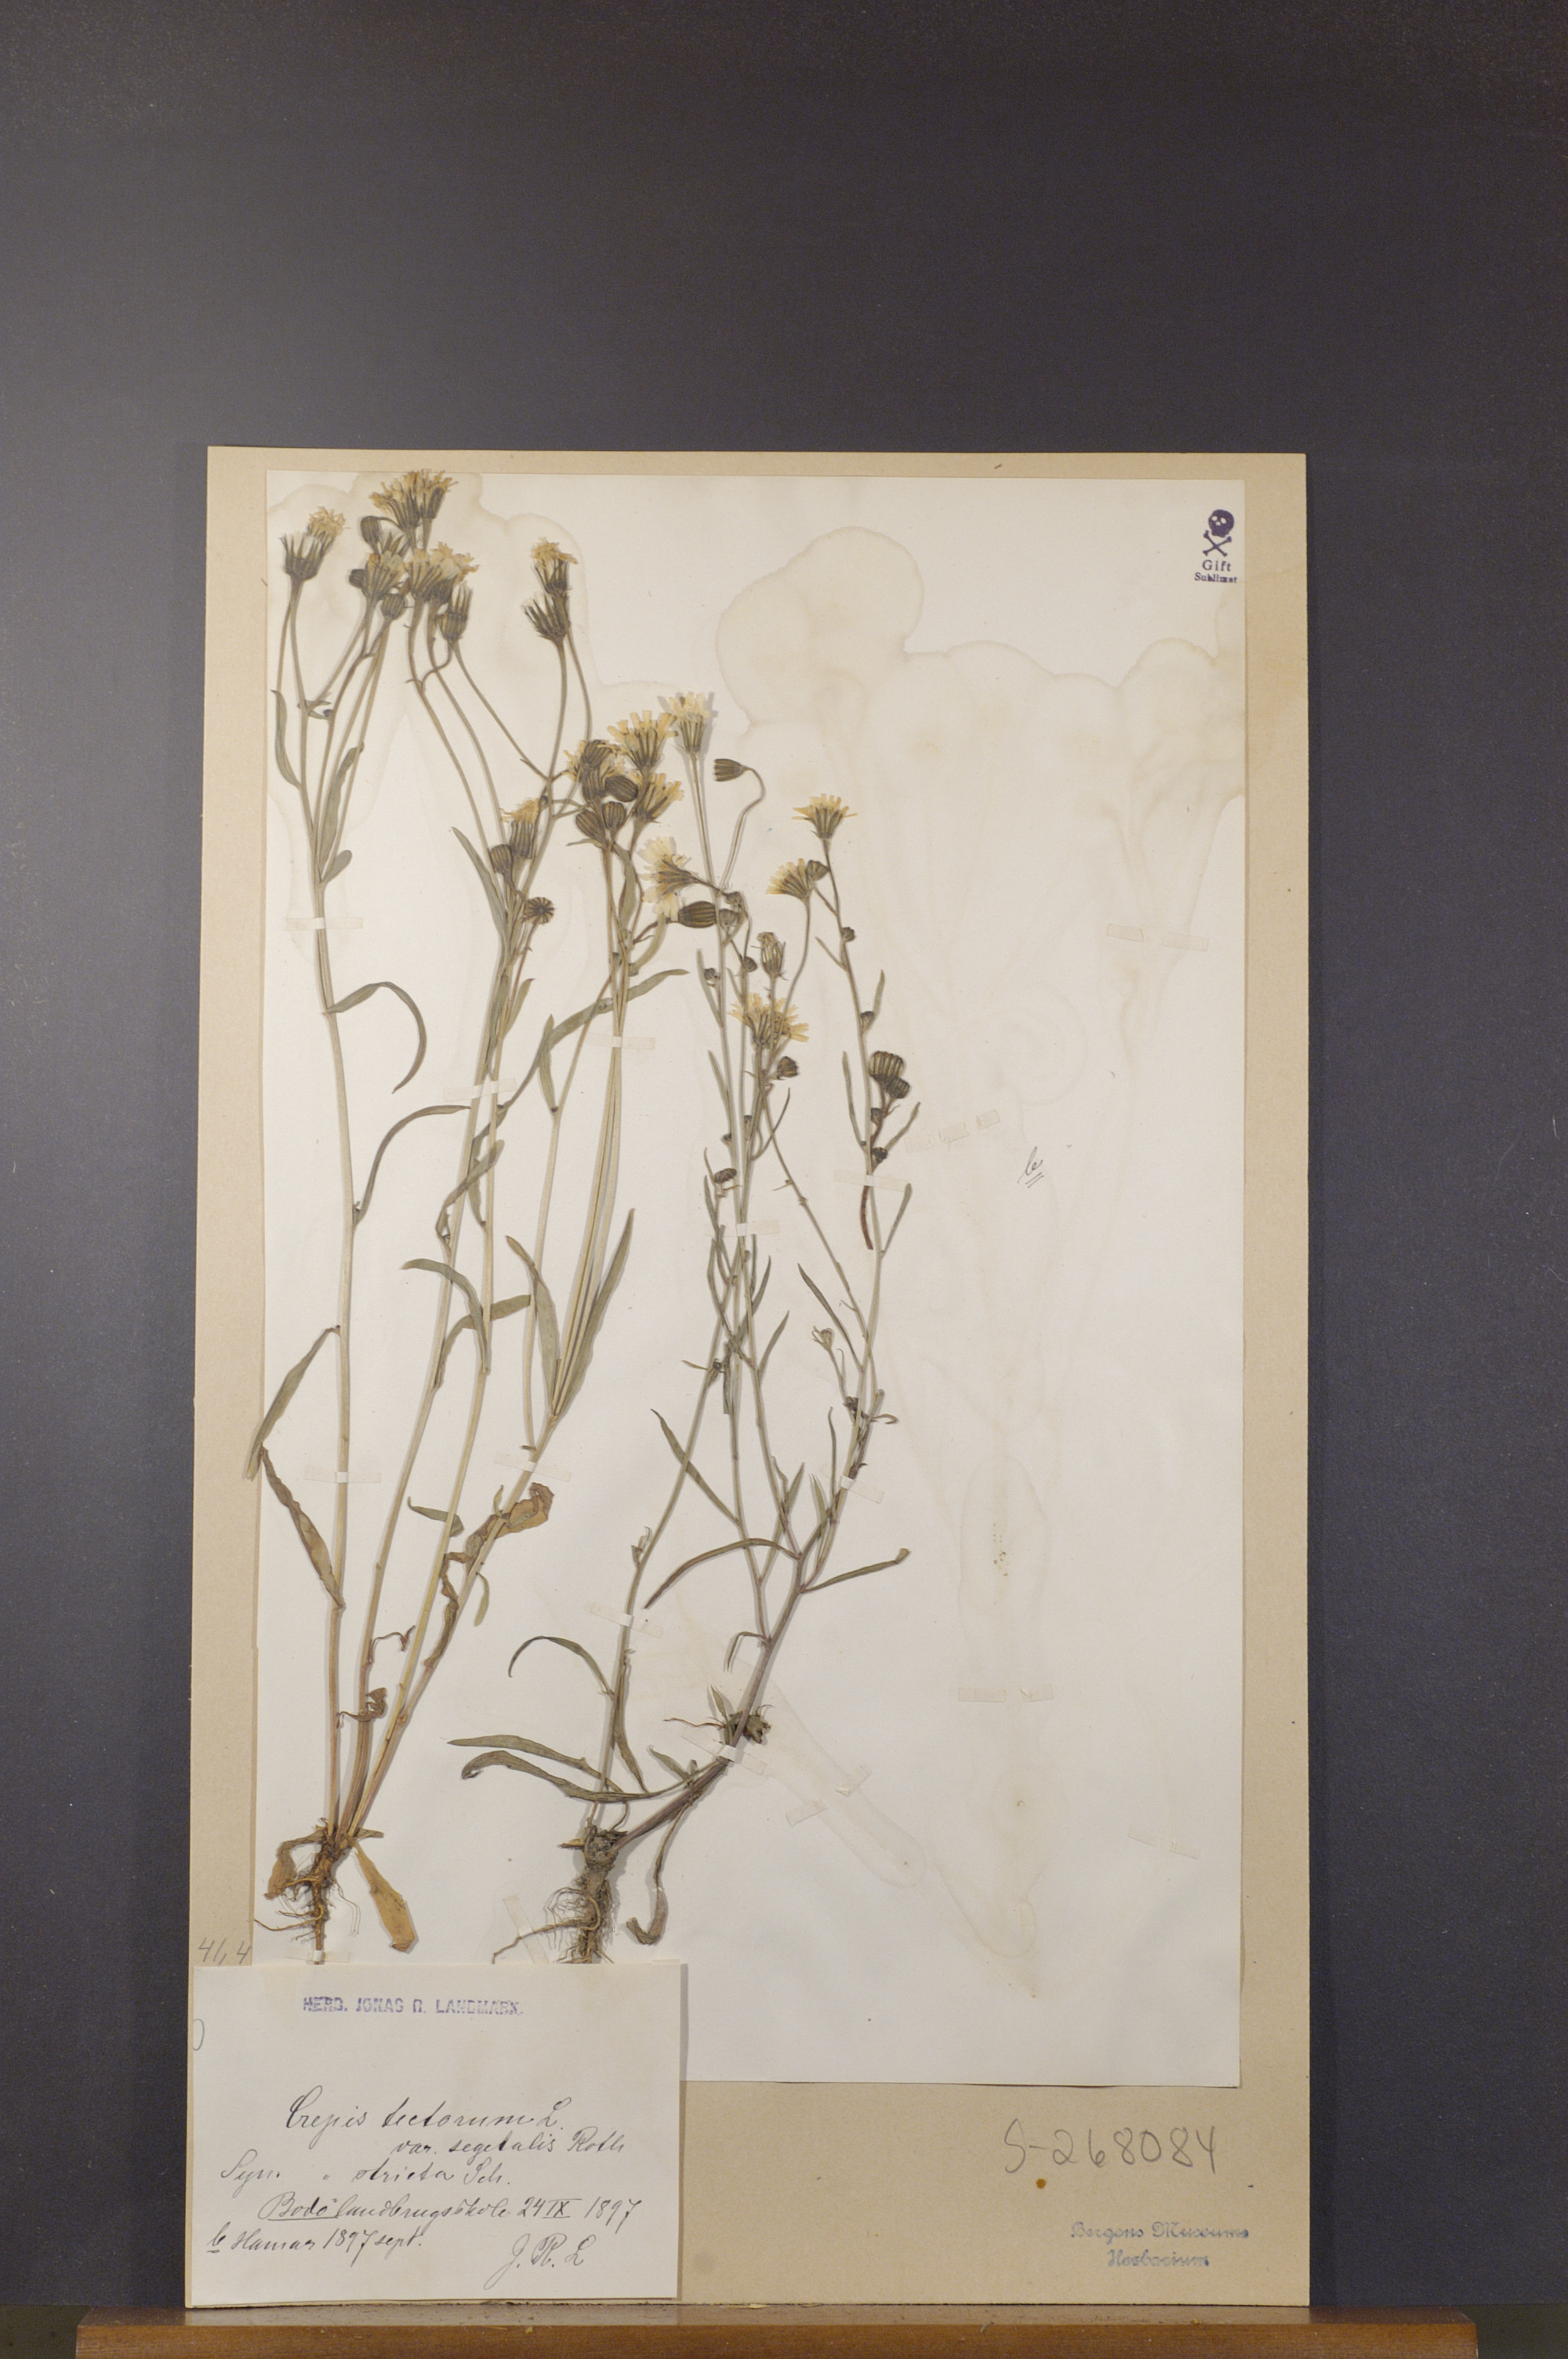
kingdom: Plantae
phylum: Tracheophyta
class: Magnoliopsida
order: Asterales
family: Asteraceae
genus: Crepis
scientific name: Crepis tectorum
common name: Narrow-leaved hawk's-beard
